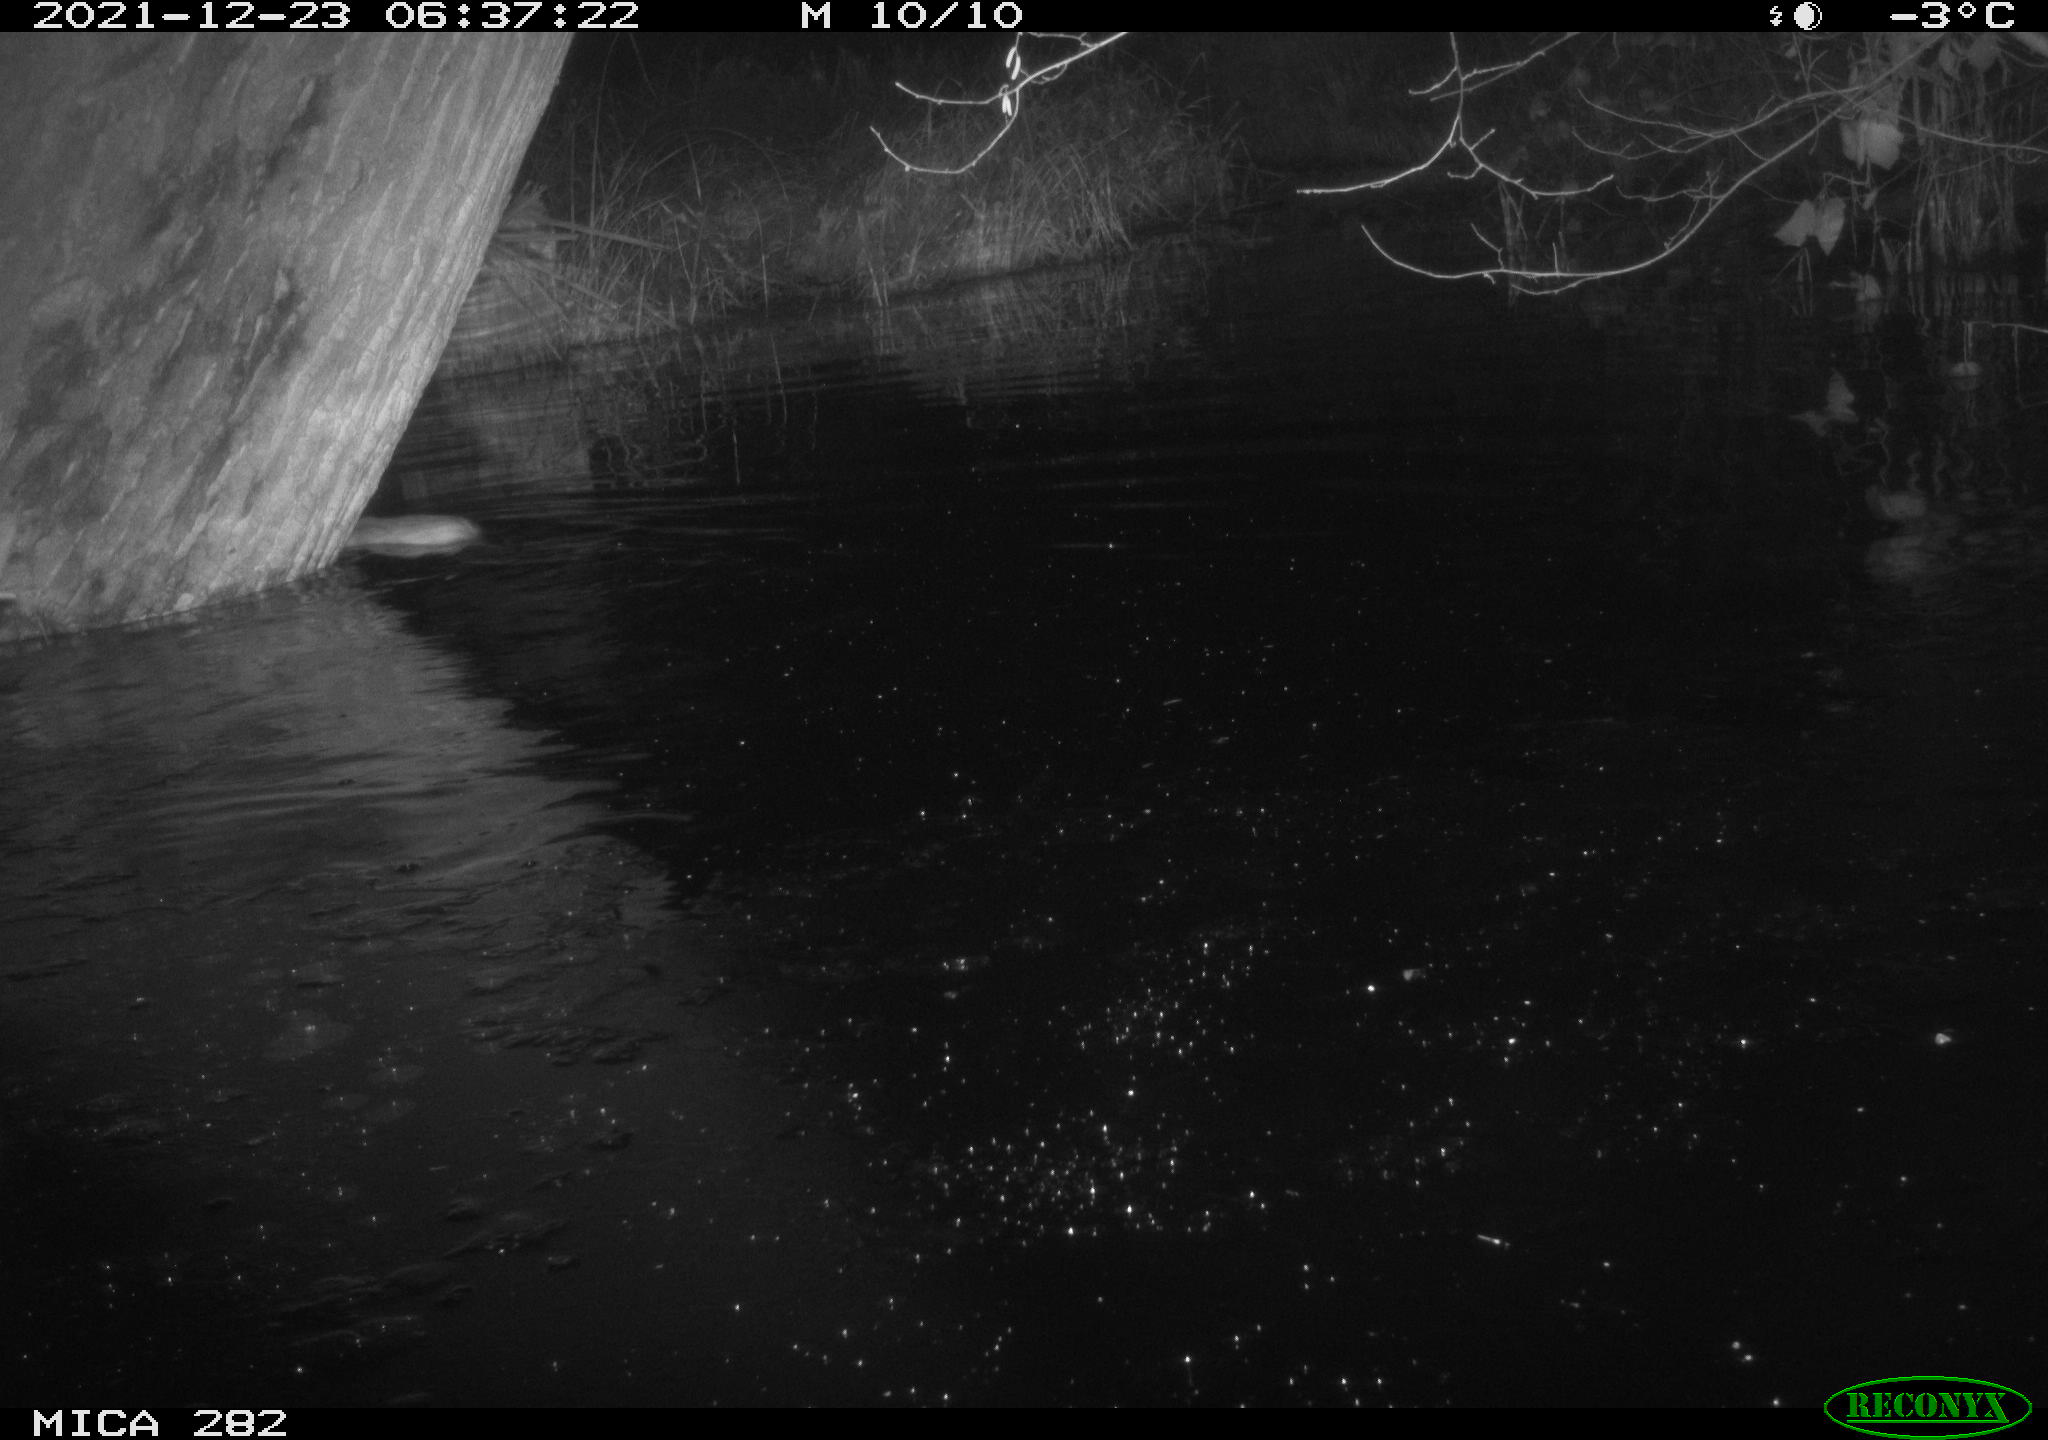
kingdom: Animalia
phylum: Chordata
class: Mammalia
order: Rodentia
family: Myocastoridae
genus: Myocastor
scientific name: Myocastor coypus
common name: Coypu
